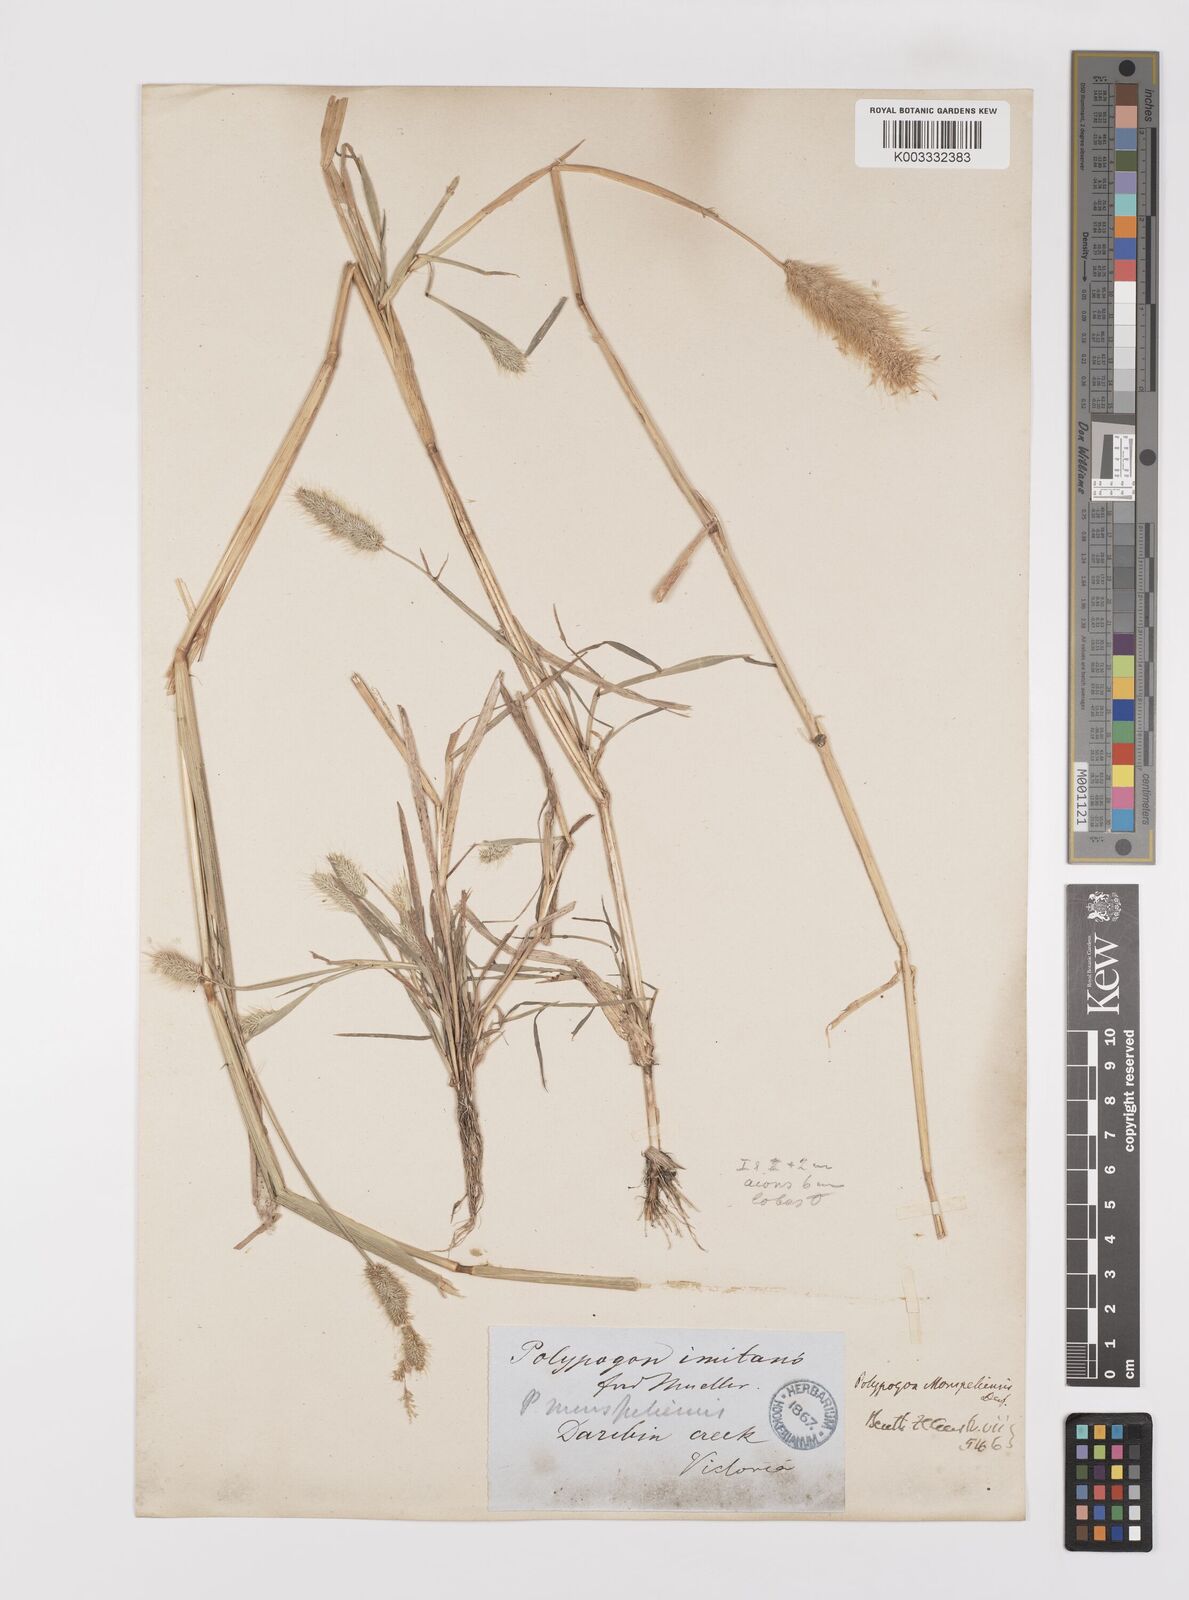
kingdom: Plantae
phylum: Tracheophyta
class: Liliopsida
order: Poales
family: Poaceae
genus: Polypogon
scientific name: Polypogon monspeliensis
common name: Annual rabbitsfoot grass
